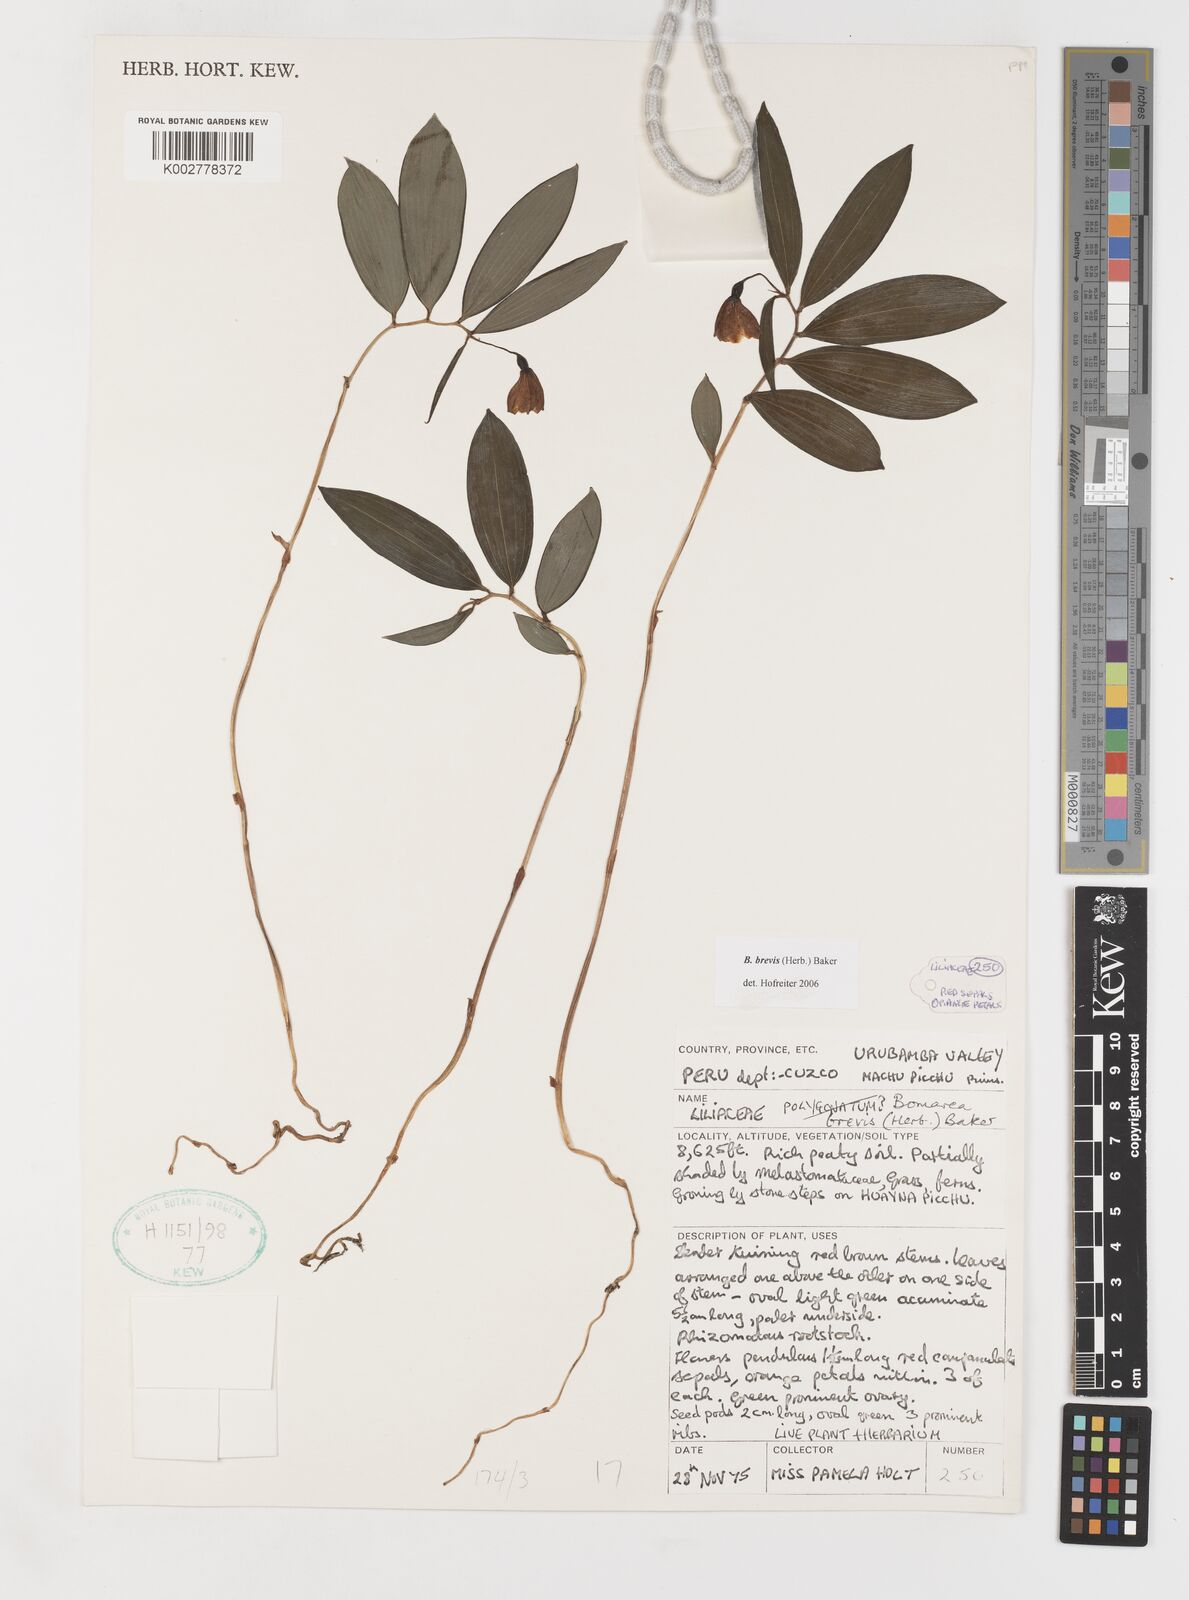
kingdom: Plantae
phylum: Tracheophyta
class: Liliopsida
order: Liliales
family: Alstroemeriaceae
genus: Bomarea
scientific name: Bomarea brevis
